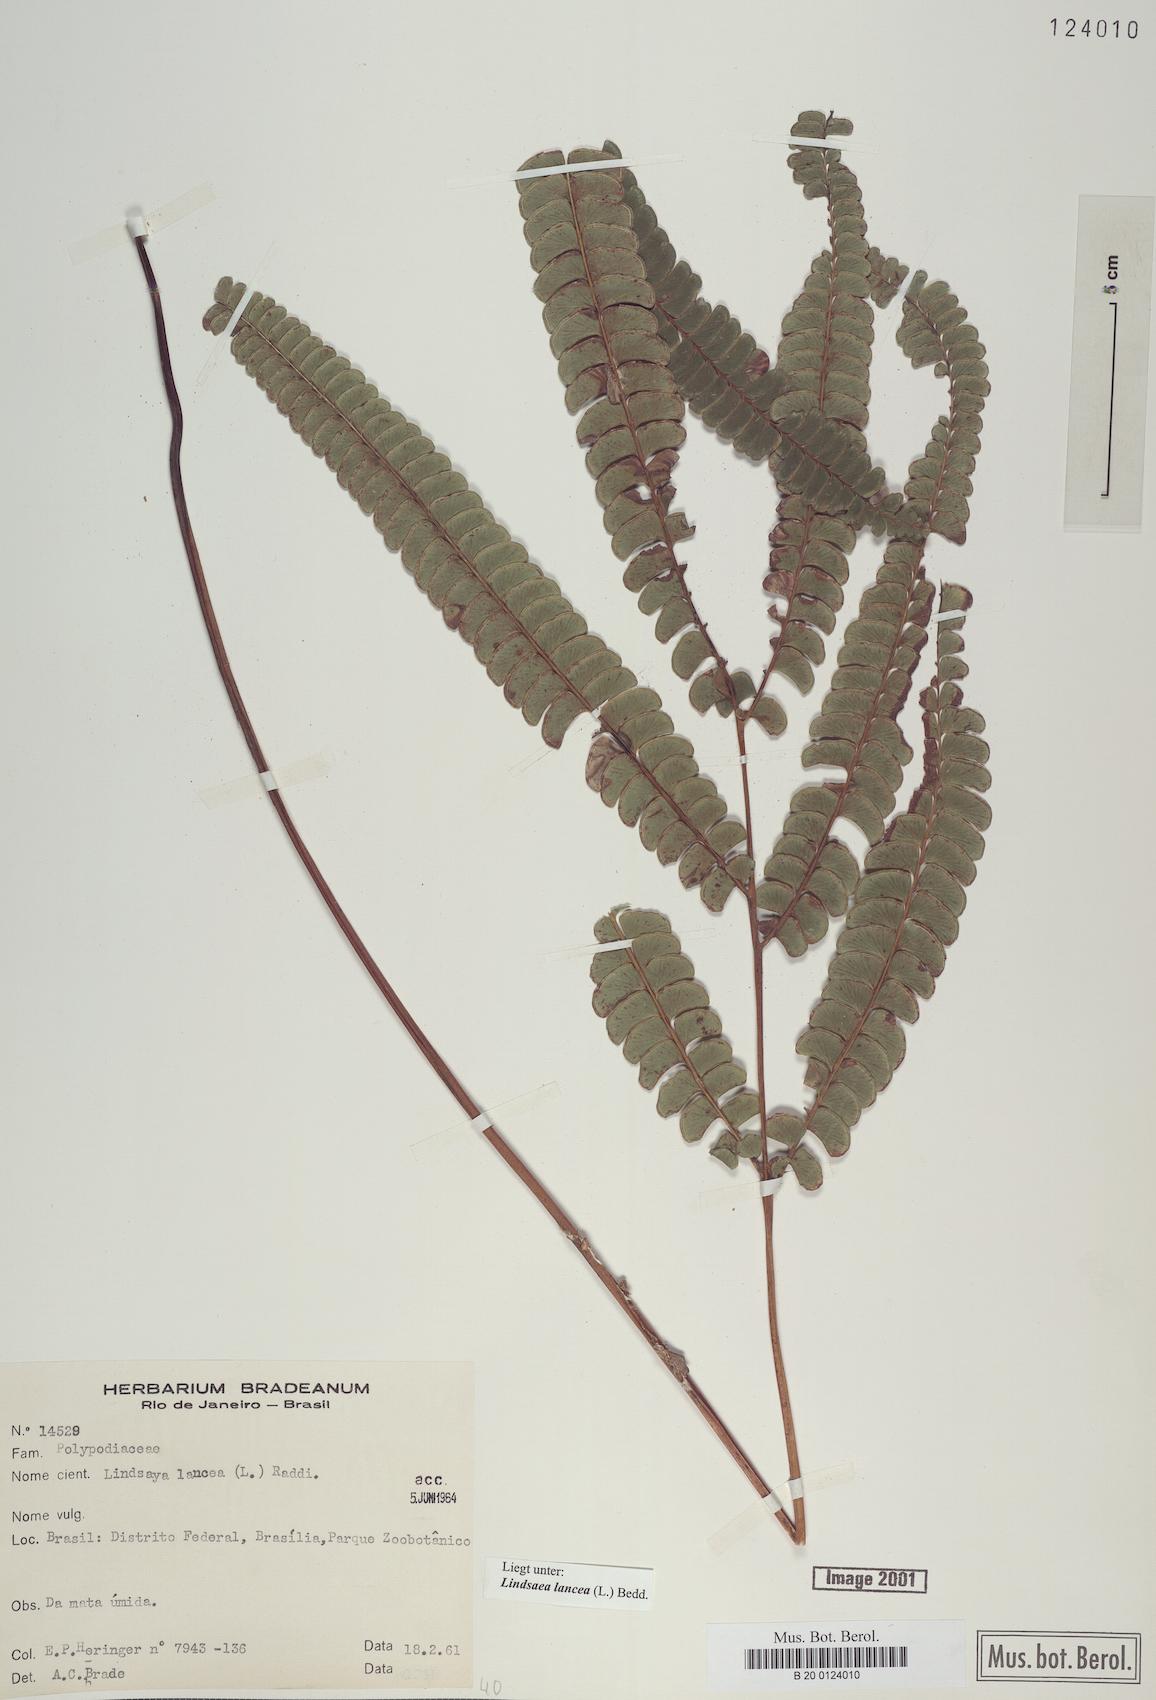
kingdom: Plantae
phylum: Tracheophyta
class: Polypodiopsida
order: Polypodiales
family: Lindsaeaceae
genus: Lindsaea
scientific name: Lindsaea lancea
